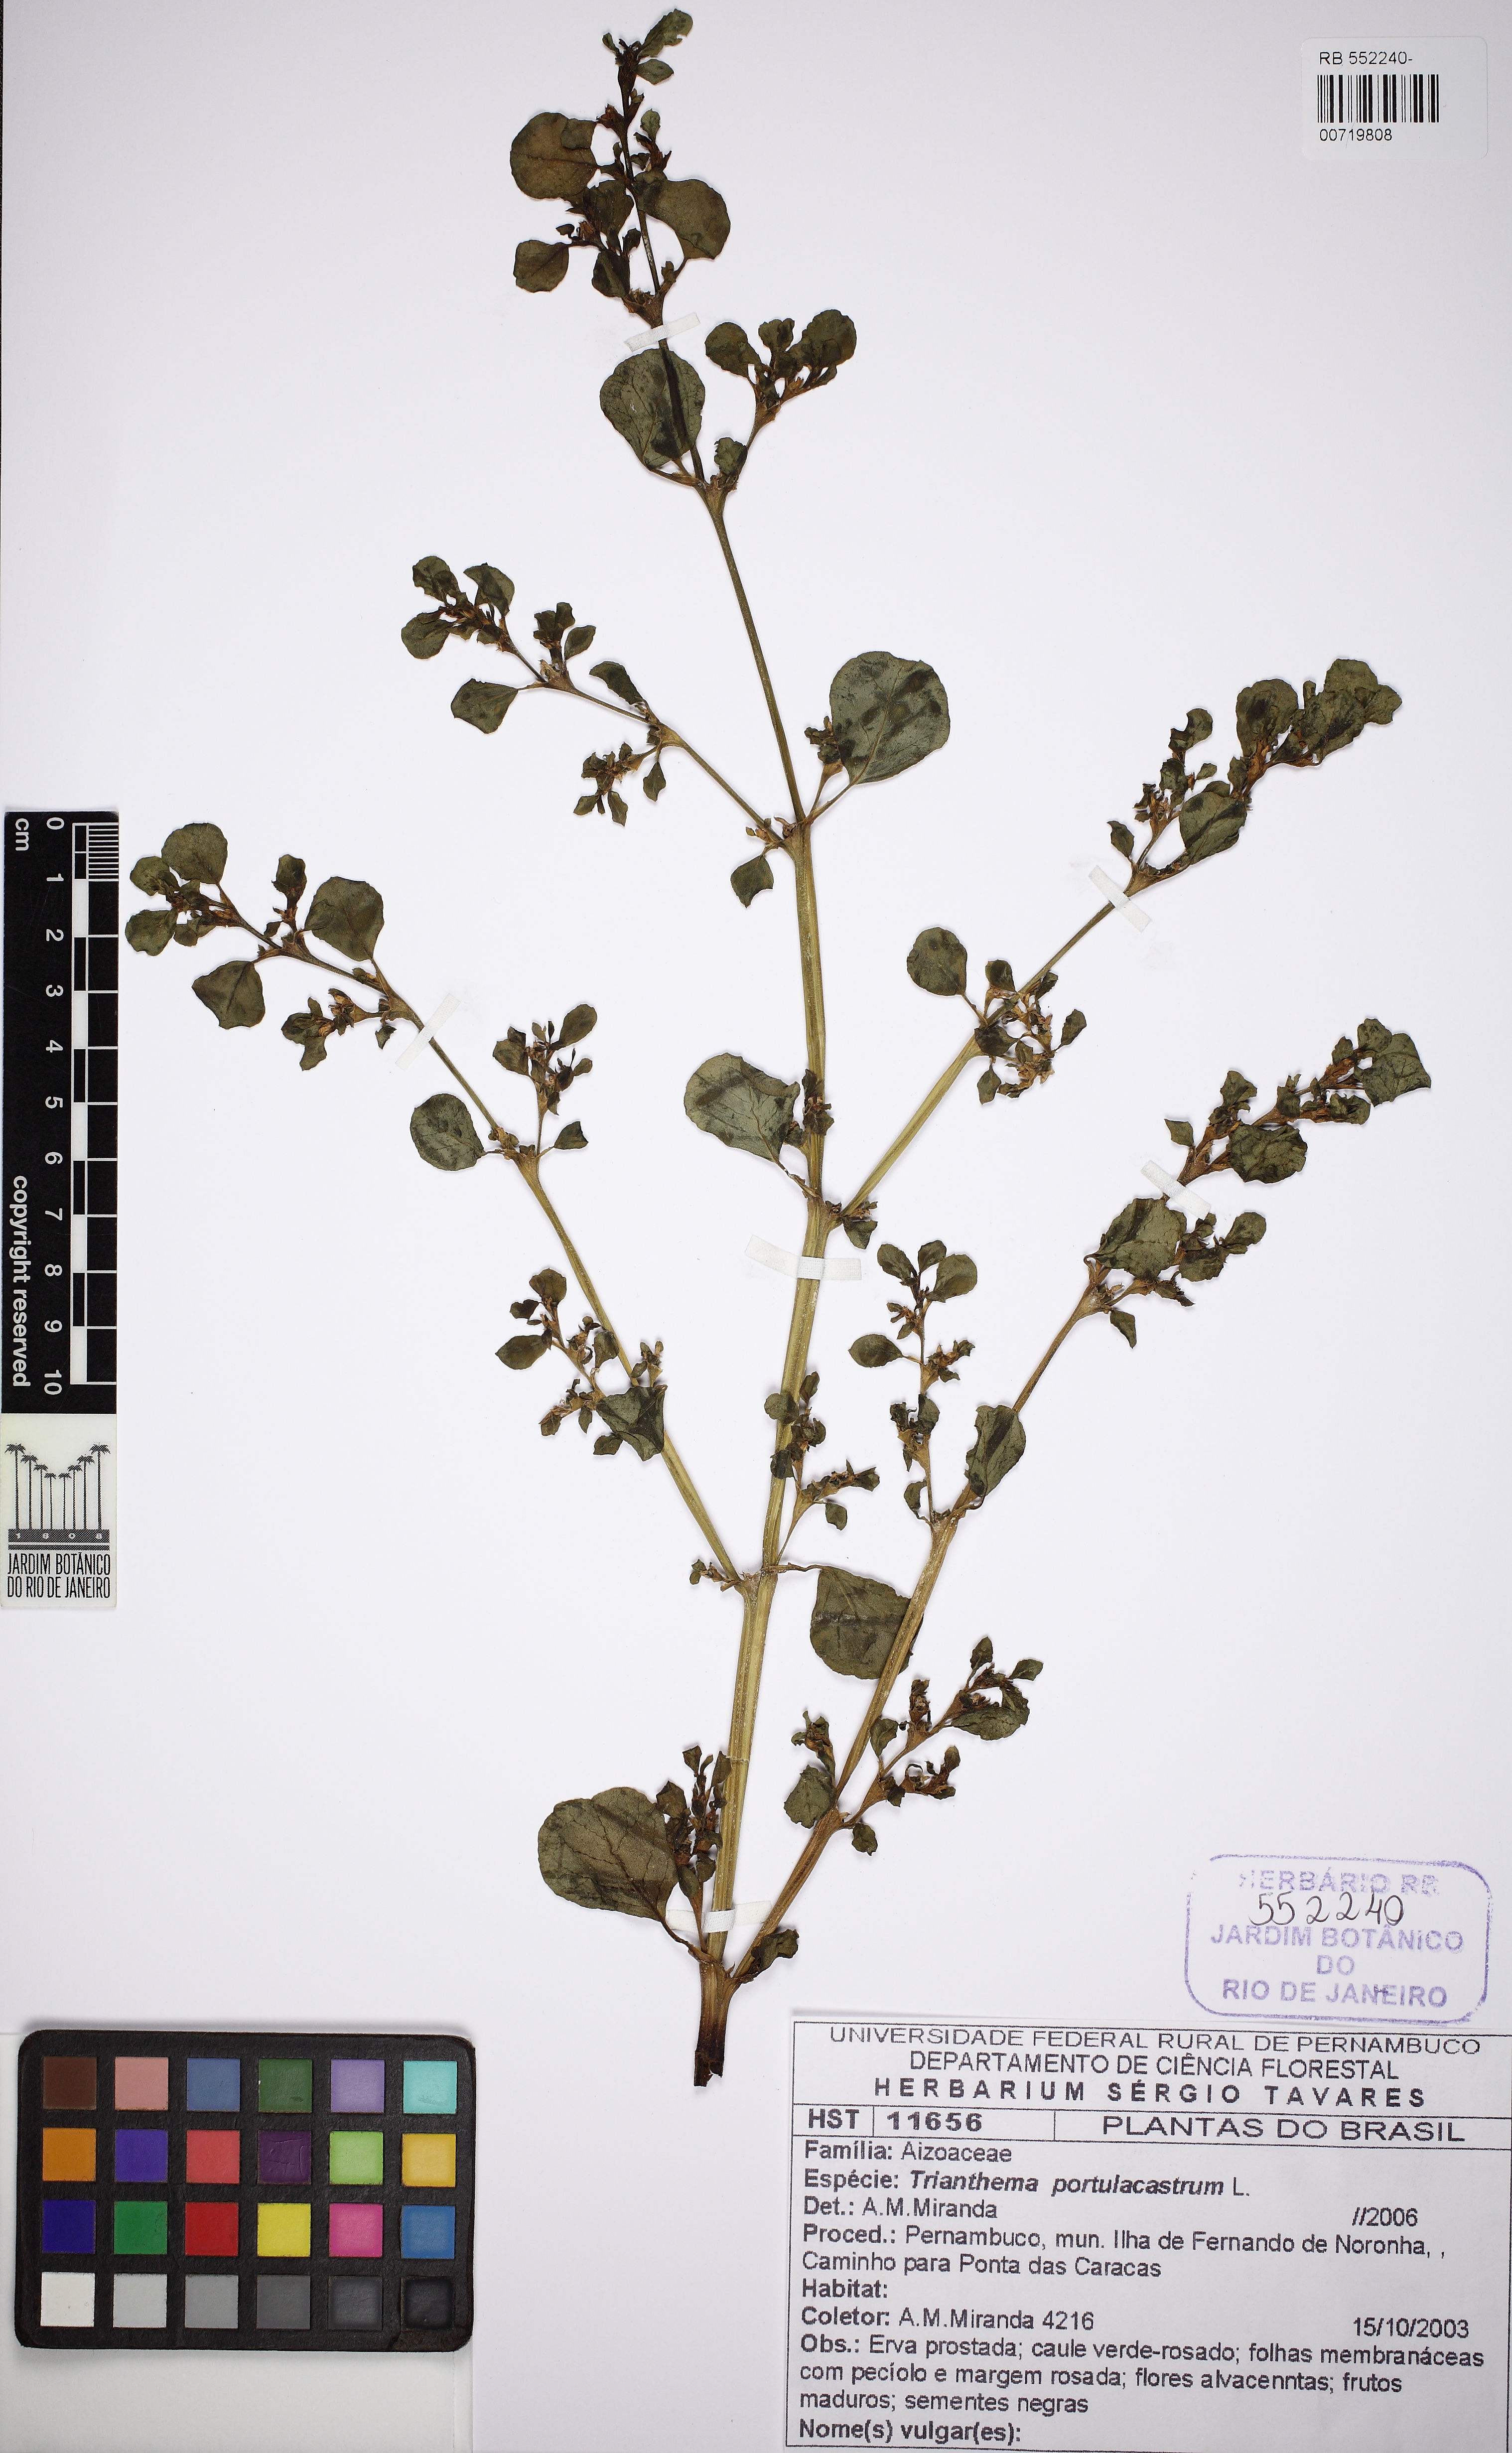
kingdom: Plantae
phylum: Tracheophyta
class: Magnoliopsida
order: Caryophyllales
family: Aizoaceae
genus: Trianthema
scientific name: Trianthema portulacastrum
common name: Desert horsepurslane
